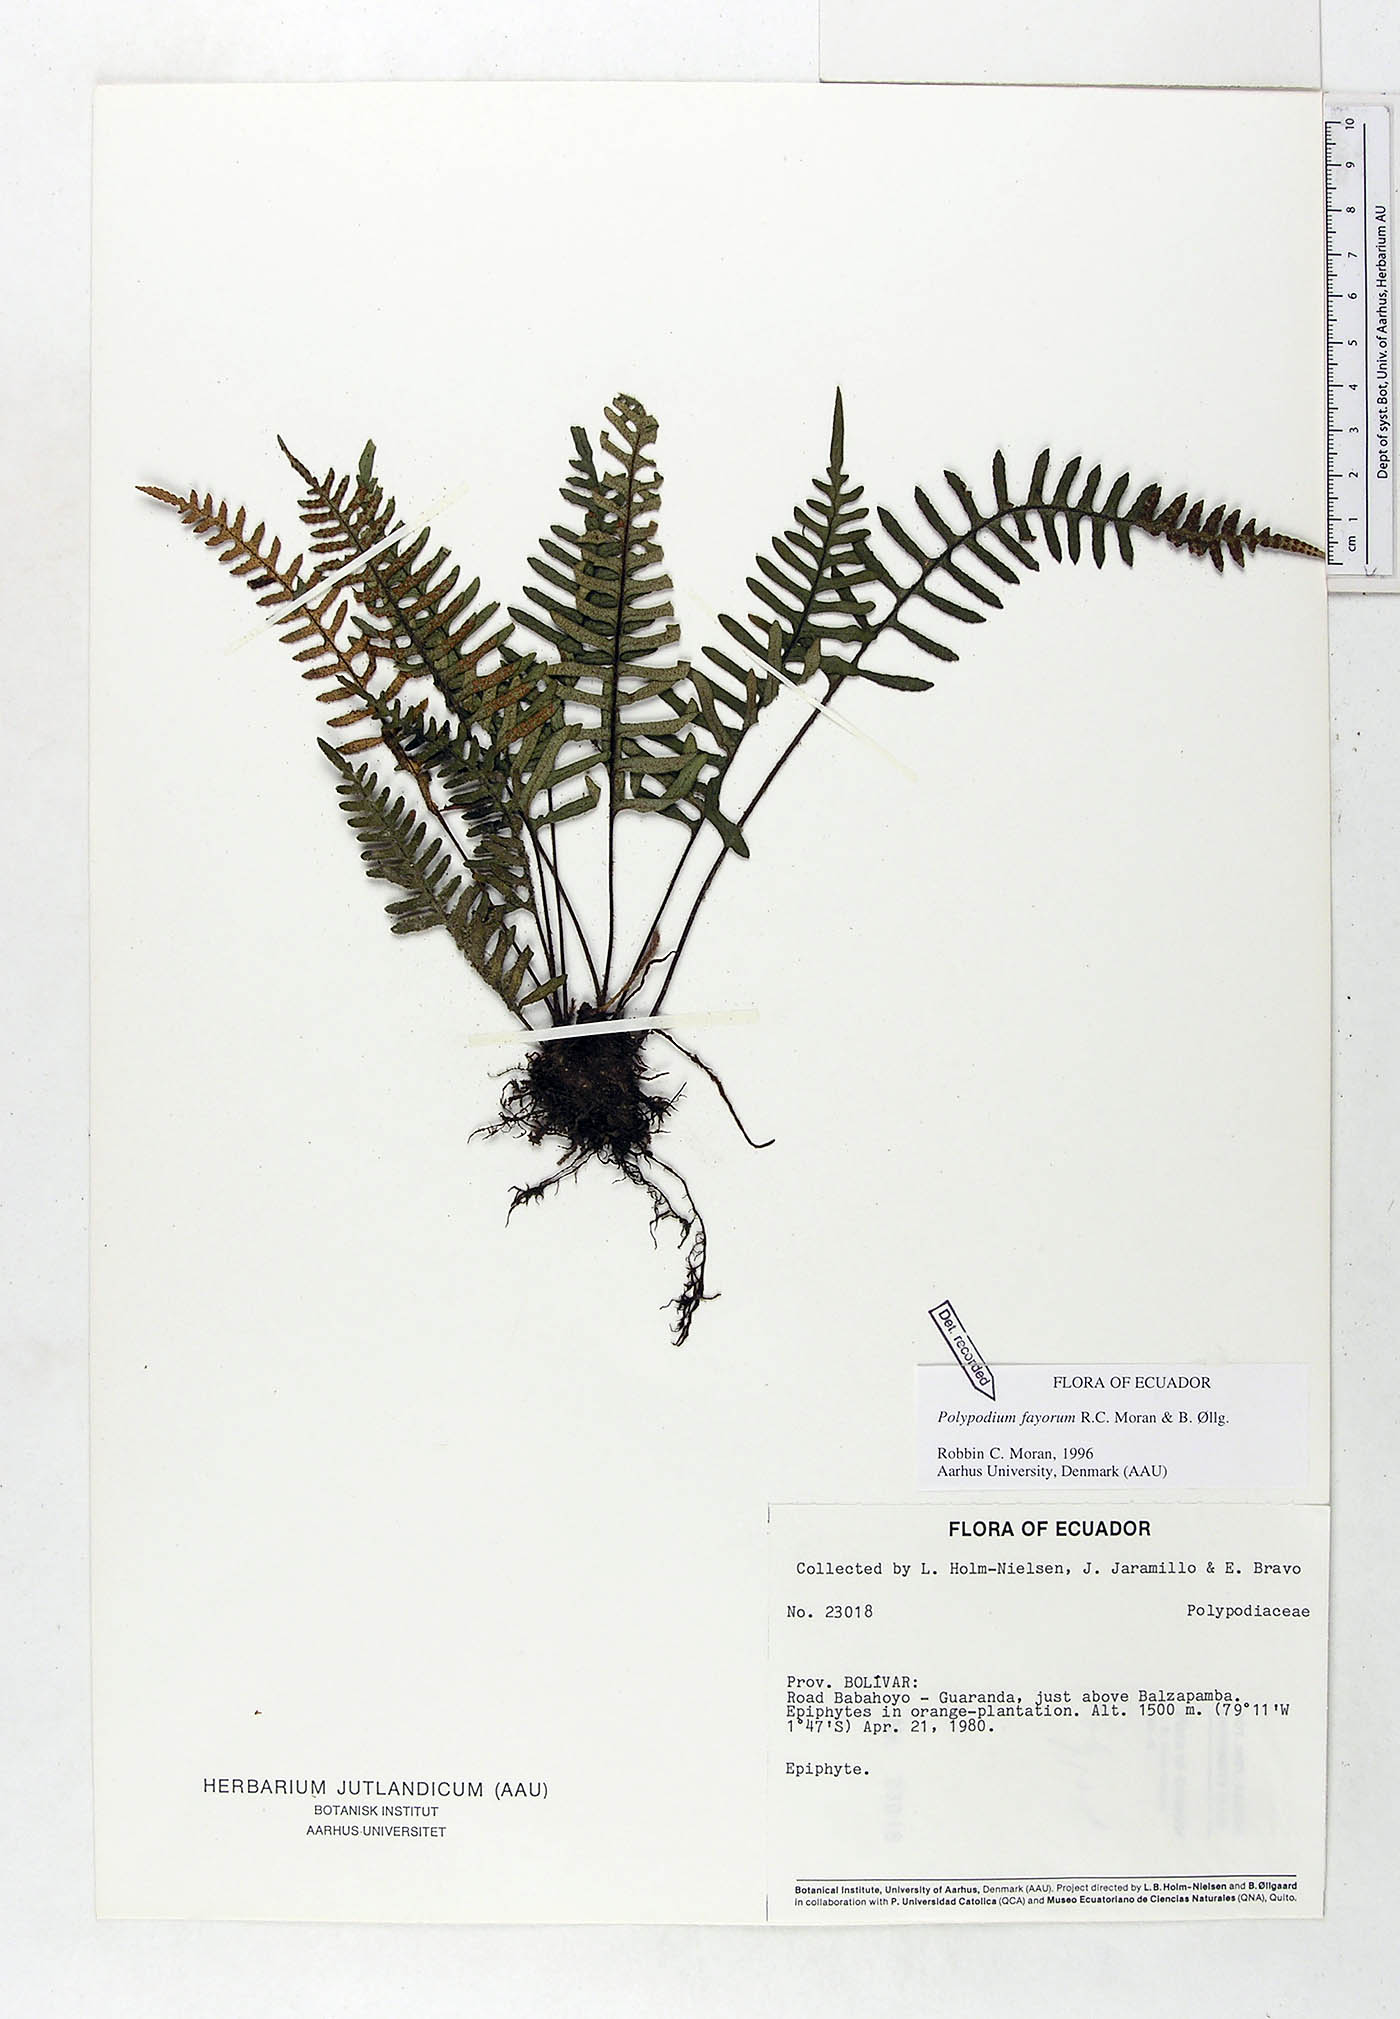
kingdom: Plantae
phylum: Tracheophyta
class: Polypodiopsida
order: Polypodiales
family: Polypodiaceae
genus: Pleopeltis
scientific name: Pleopeltis fayorum
